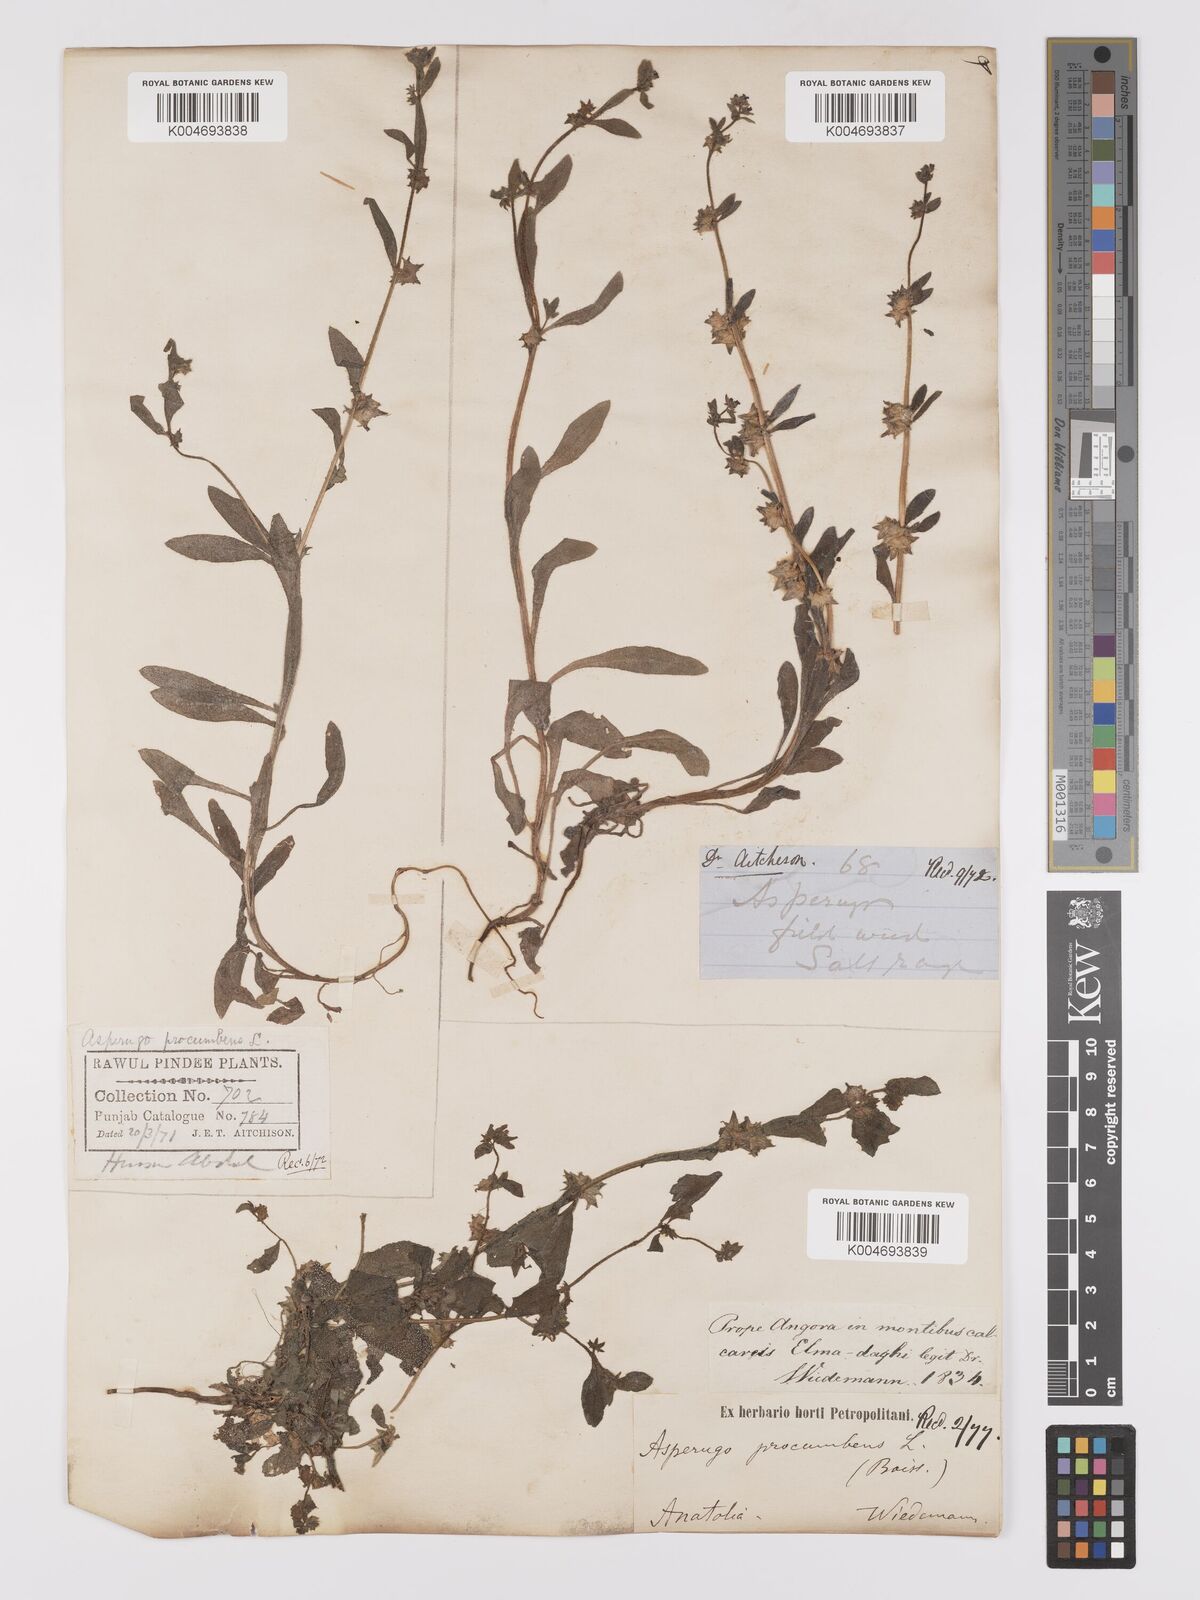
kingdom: Plantae
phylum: Tracheophyta
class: Magnoliopsida
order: Boraginales
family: Boraginaceae
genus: Asperugo
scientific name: Asperugo procumbens
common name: Madwort
